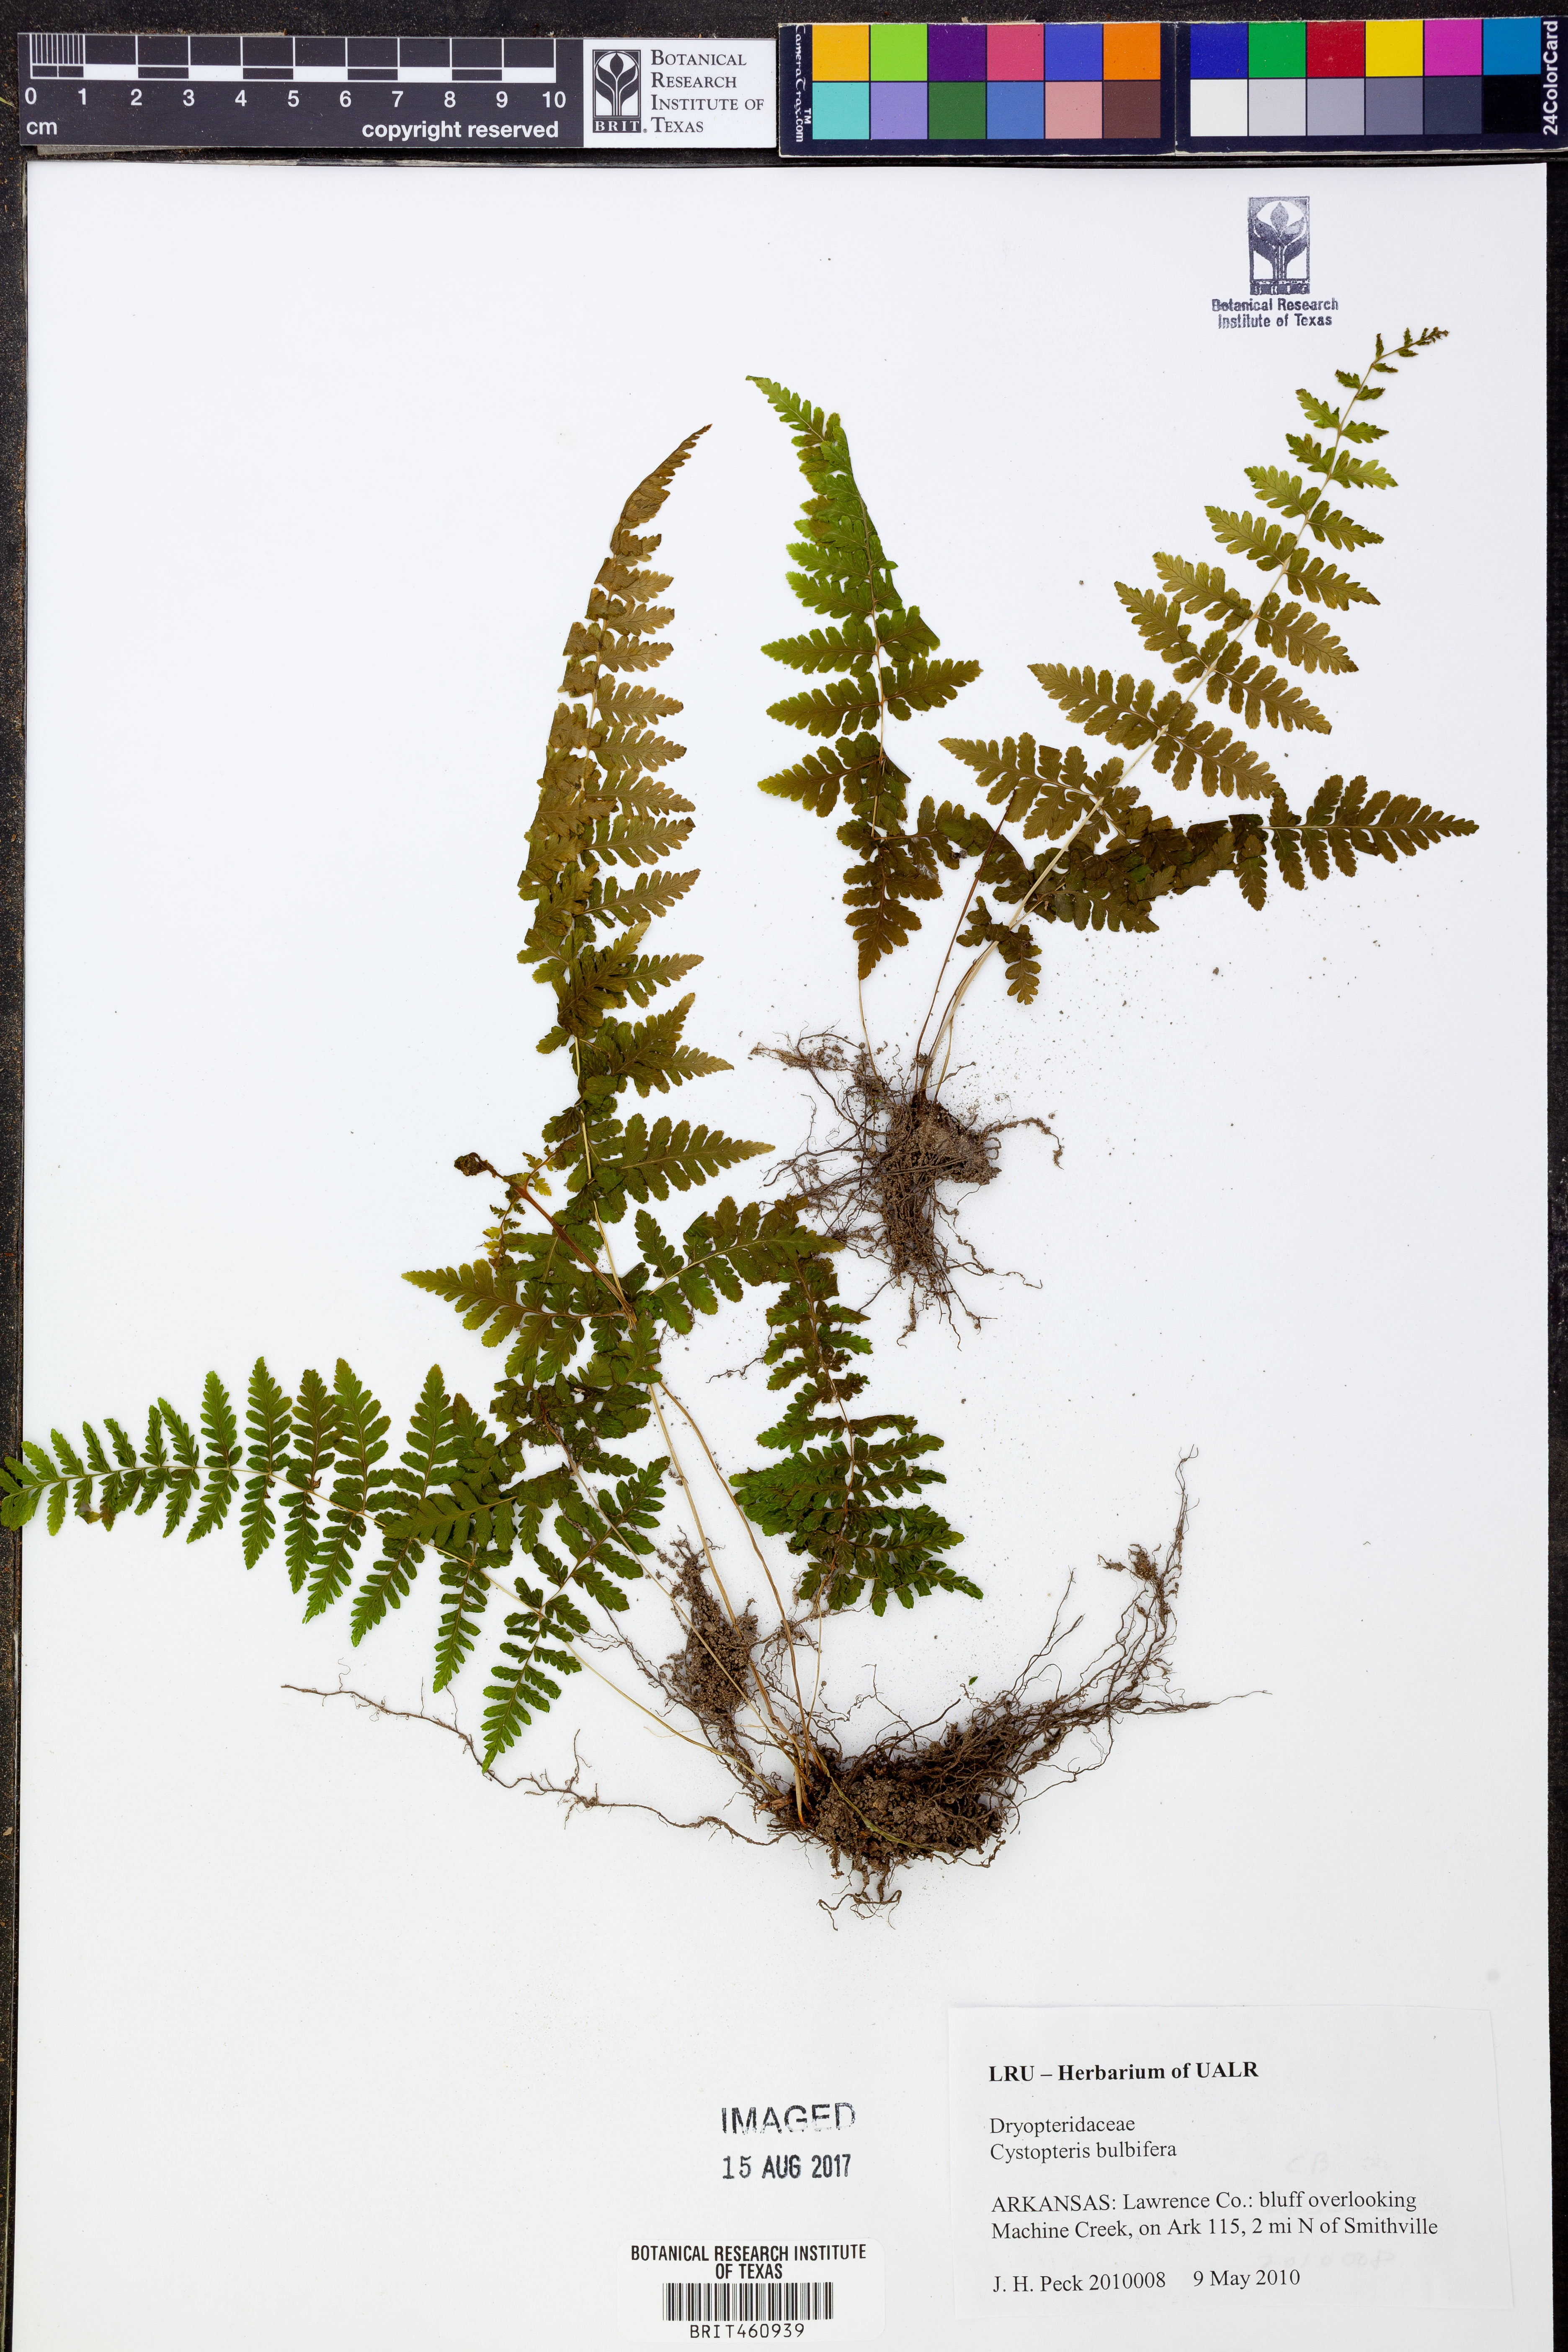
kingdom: Plantae
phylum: Tracheophyta
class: Polypodiopsida
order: Polypodiales
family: Cystopteridaceae
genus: Cystopteris
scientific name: Cystopteris bulbifera
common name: Bulblet bladder fern
